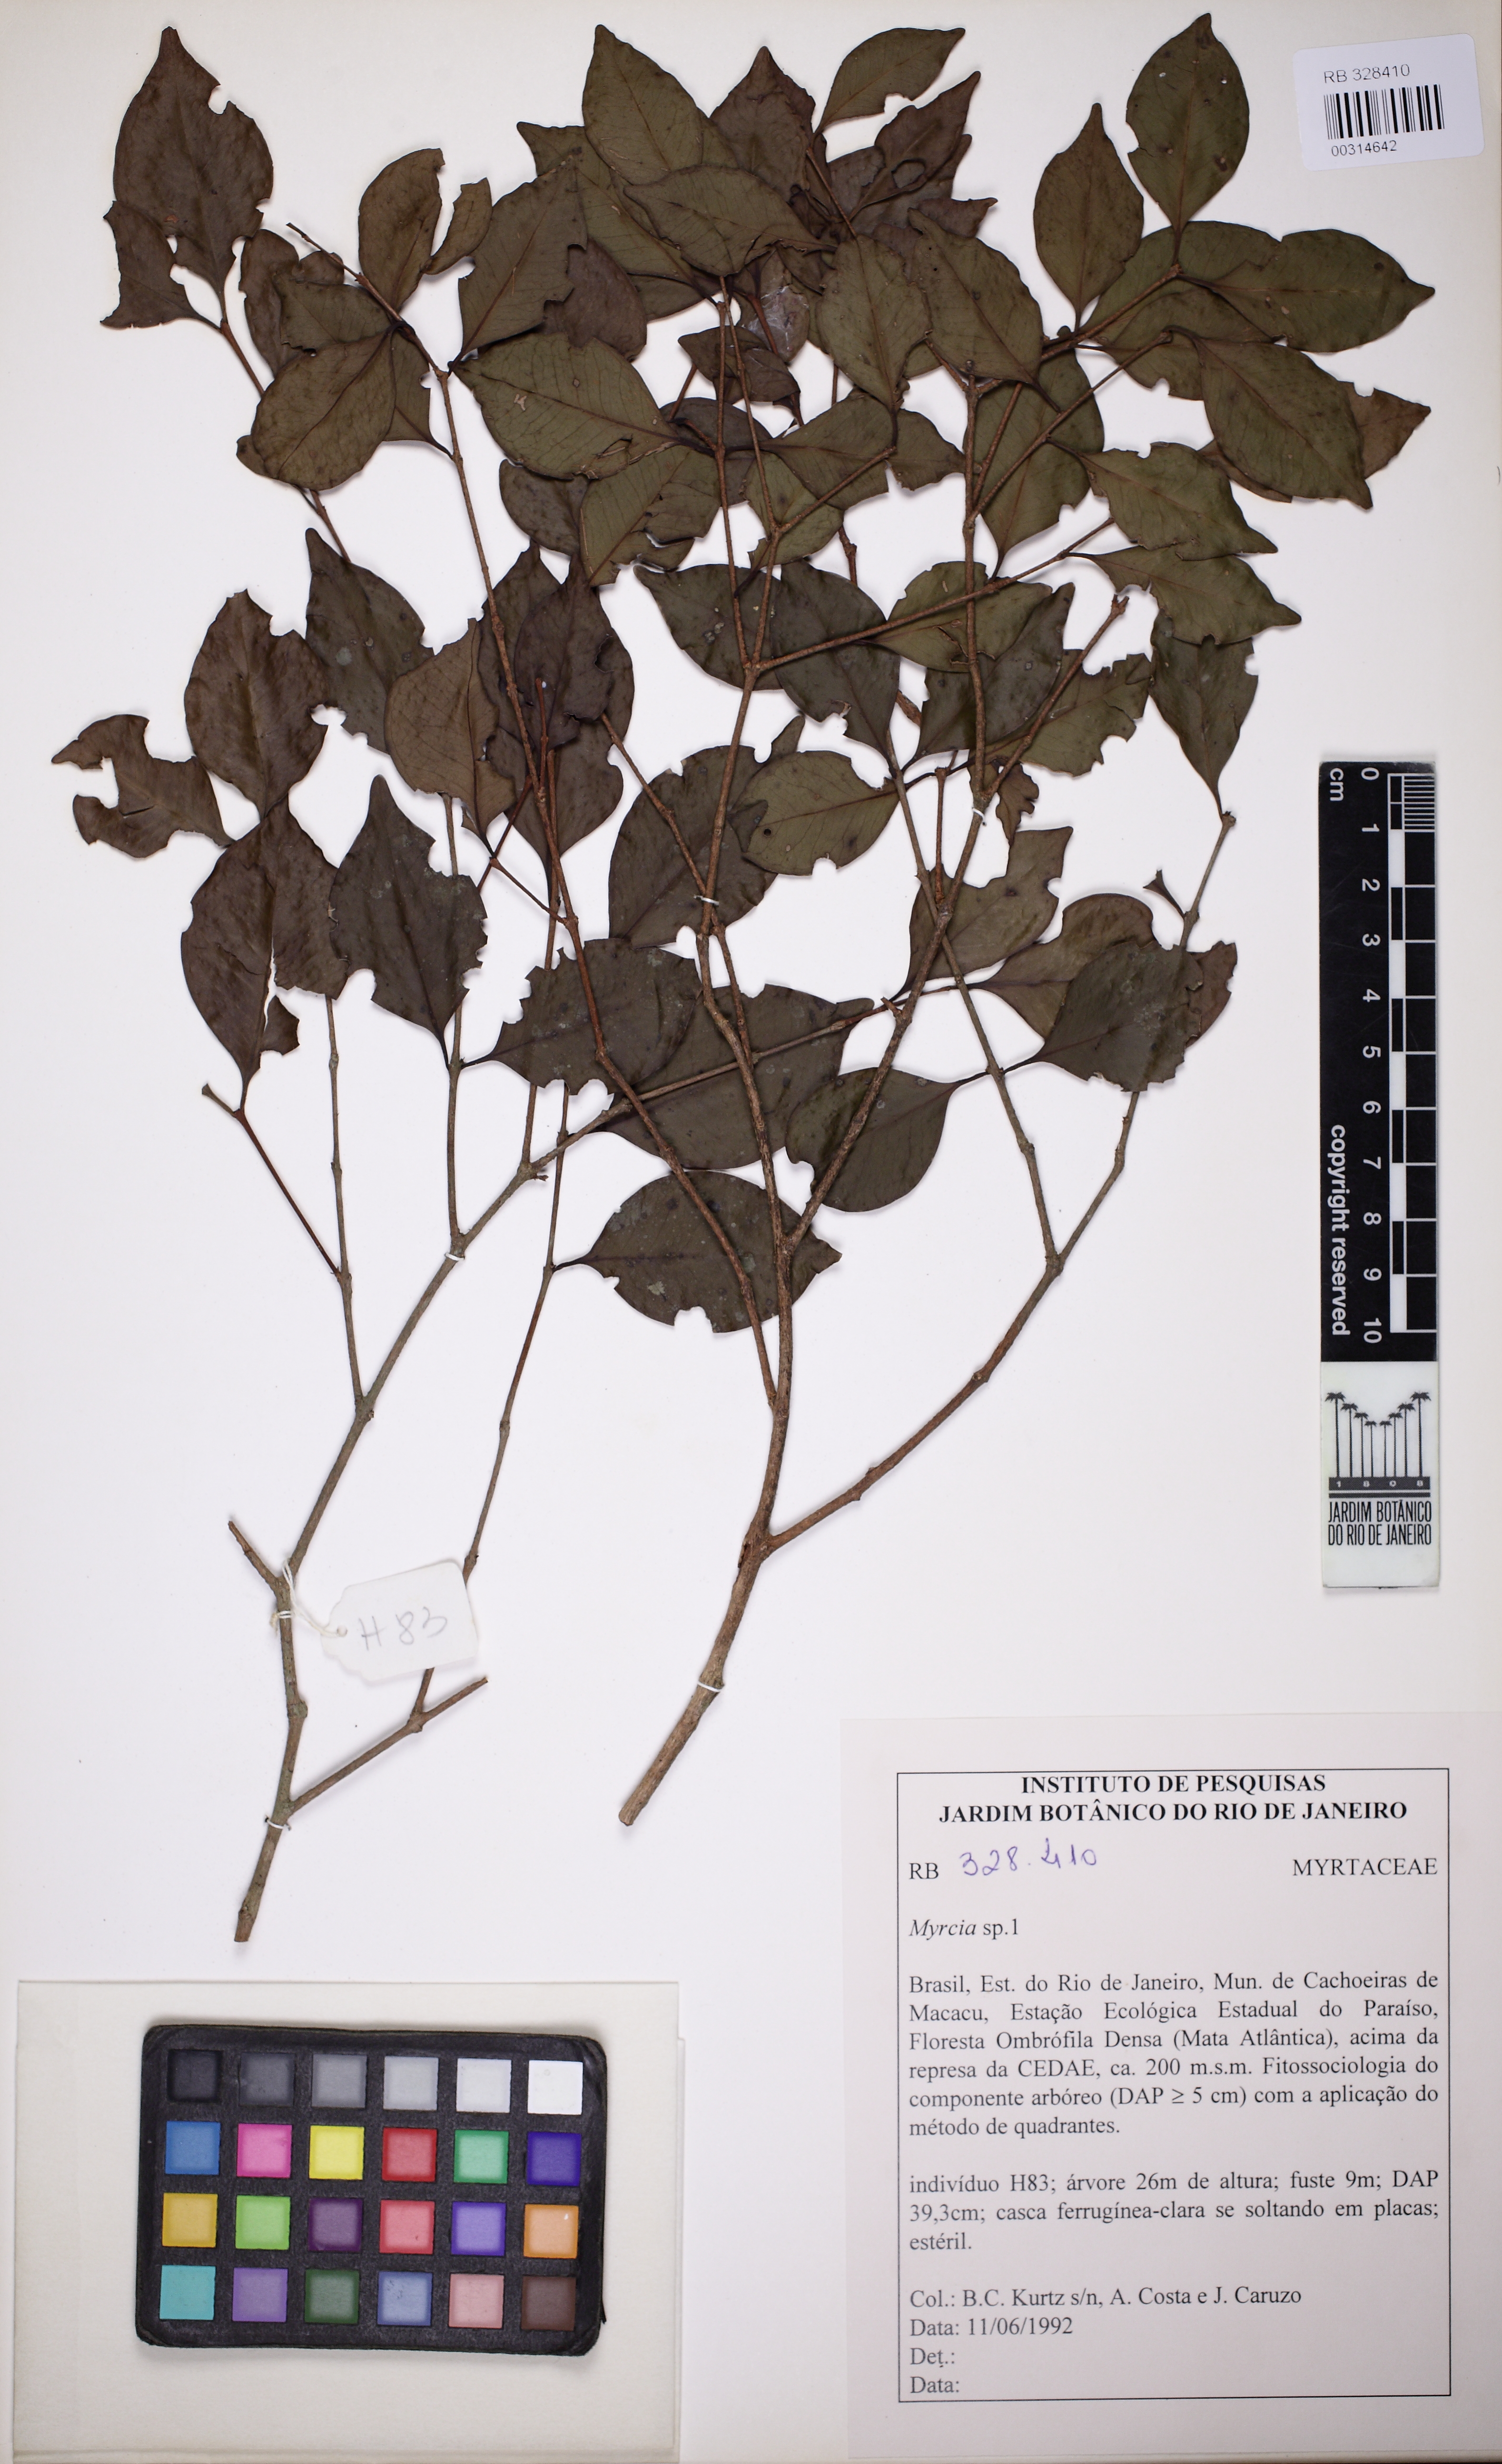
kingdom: Plantae
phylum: Tracheophyta
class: Magnoliopsida
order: Myrtales
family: Myrtaceae
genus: Myrcia
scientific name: Myrcia
